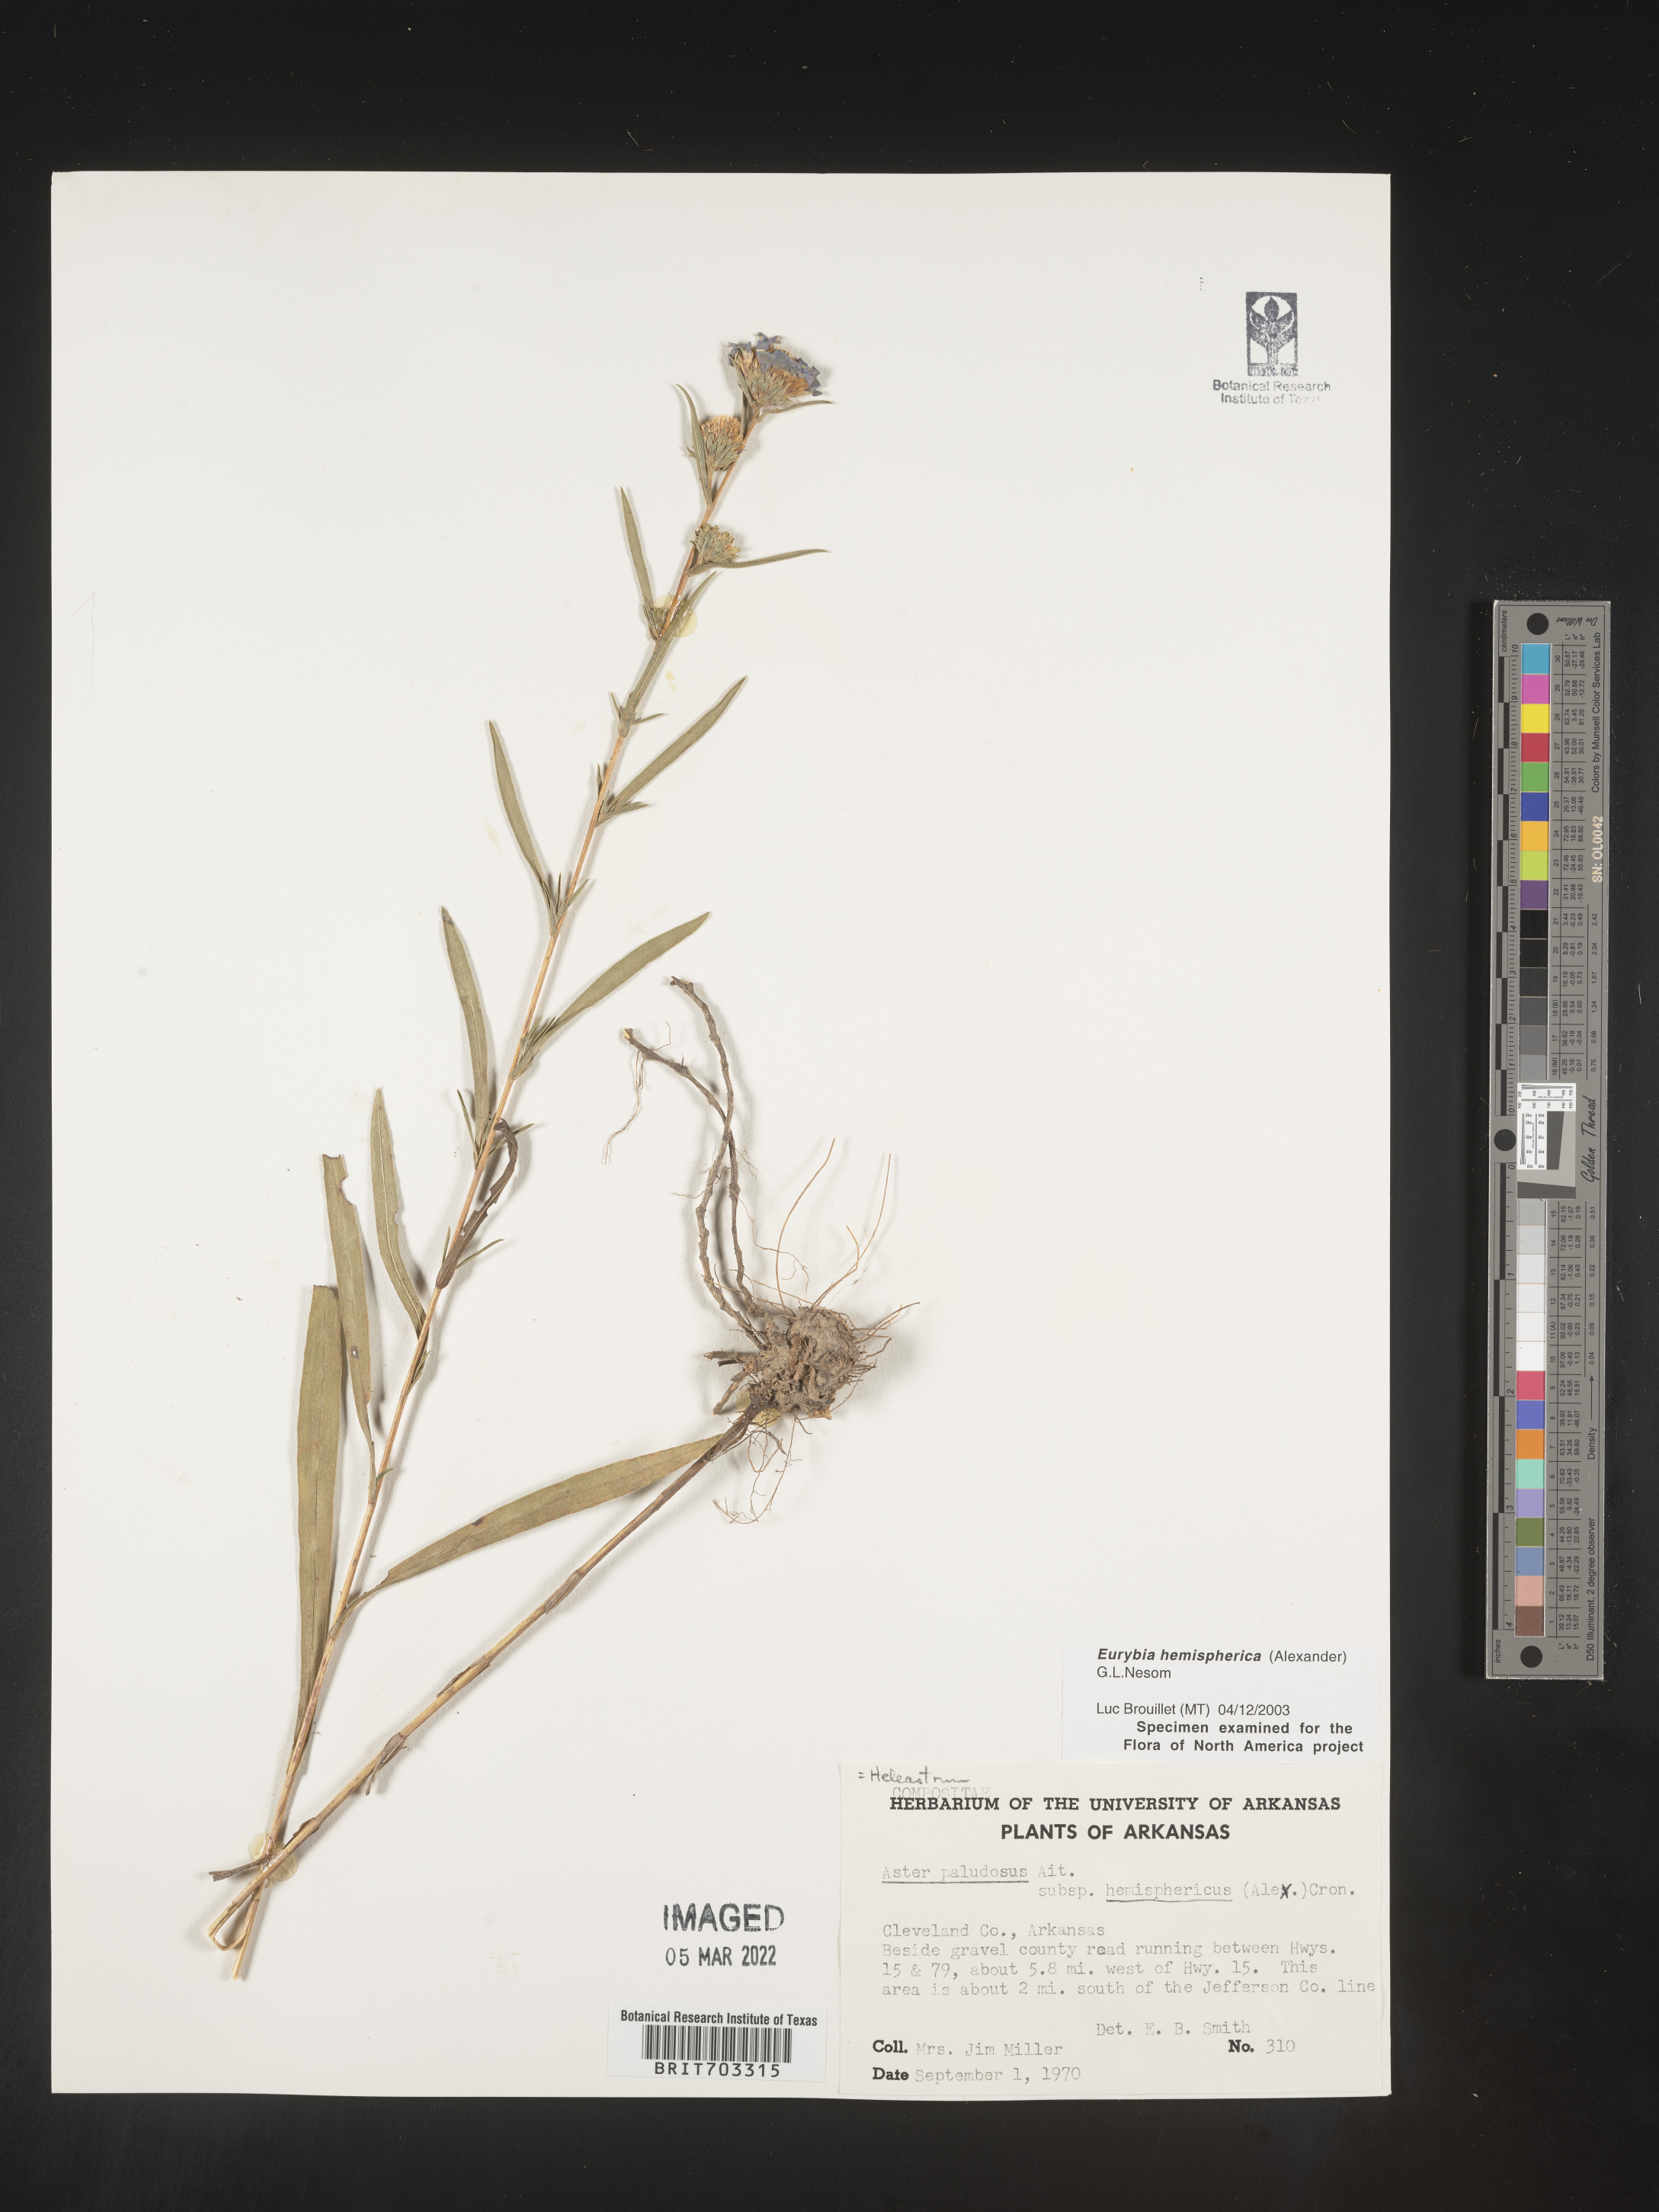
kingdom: Plantae
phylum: Tracheophyta
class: Magnoliopsida
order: Asterales
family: Asteraceae
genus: Eurybia
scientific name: Eurybia hemispherica
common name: Showy aster
